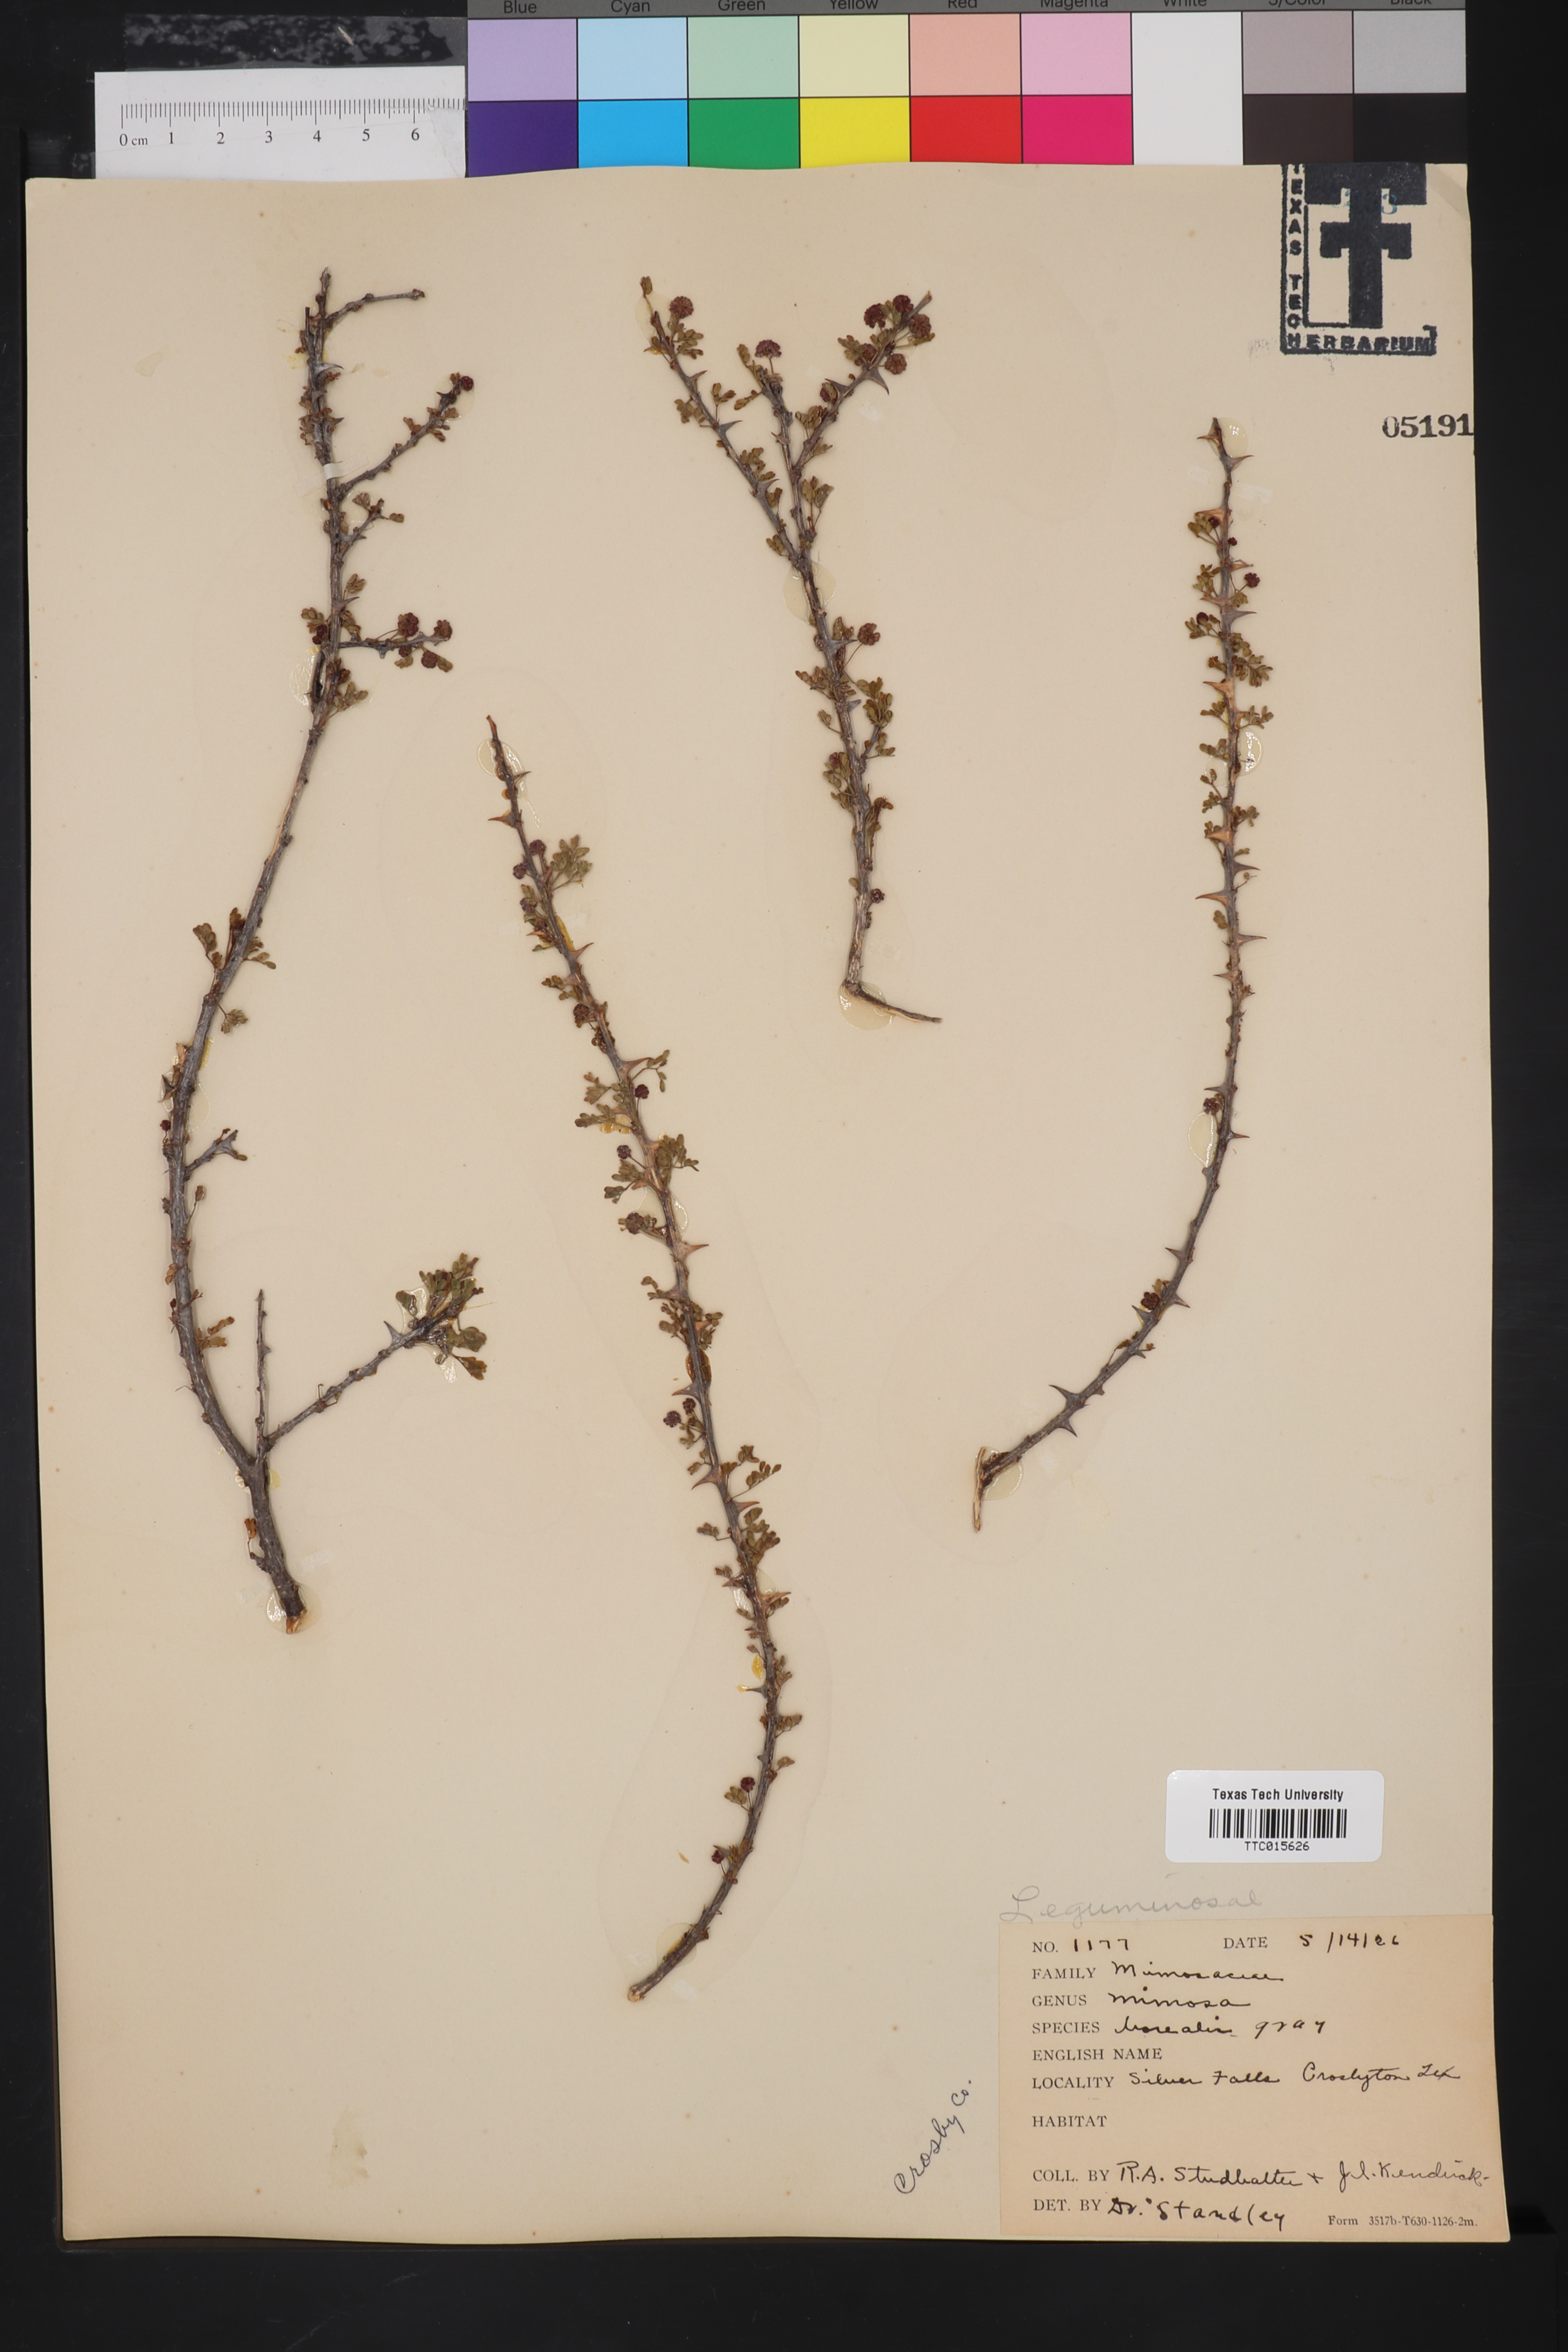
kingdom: Plantae
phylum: Tracheophyta
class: Magnoliopsida
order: Fabales
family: Fabaceae
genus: Mimosa
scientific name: Mimosa borealis
